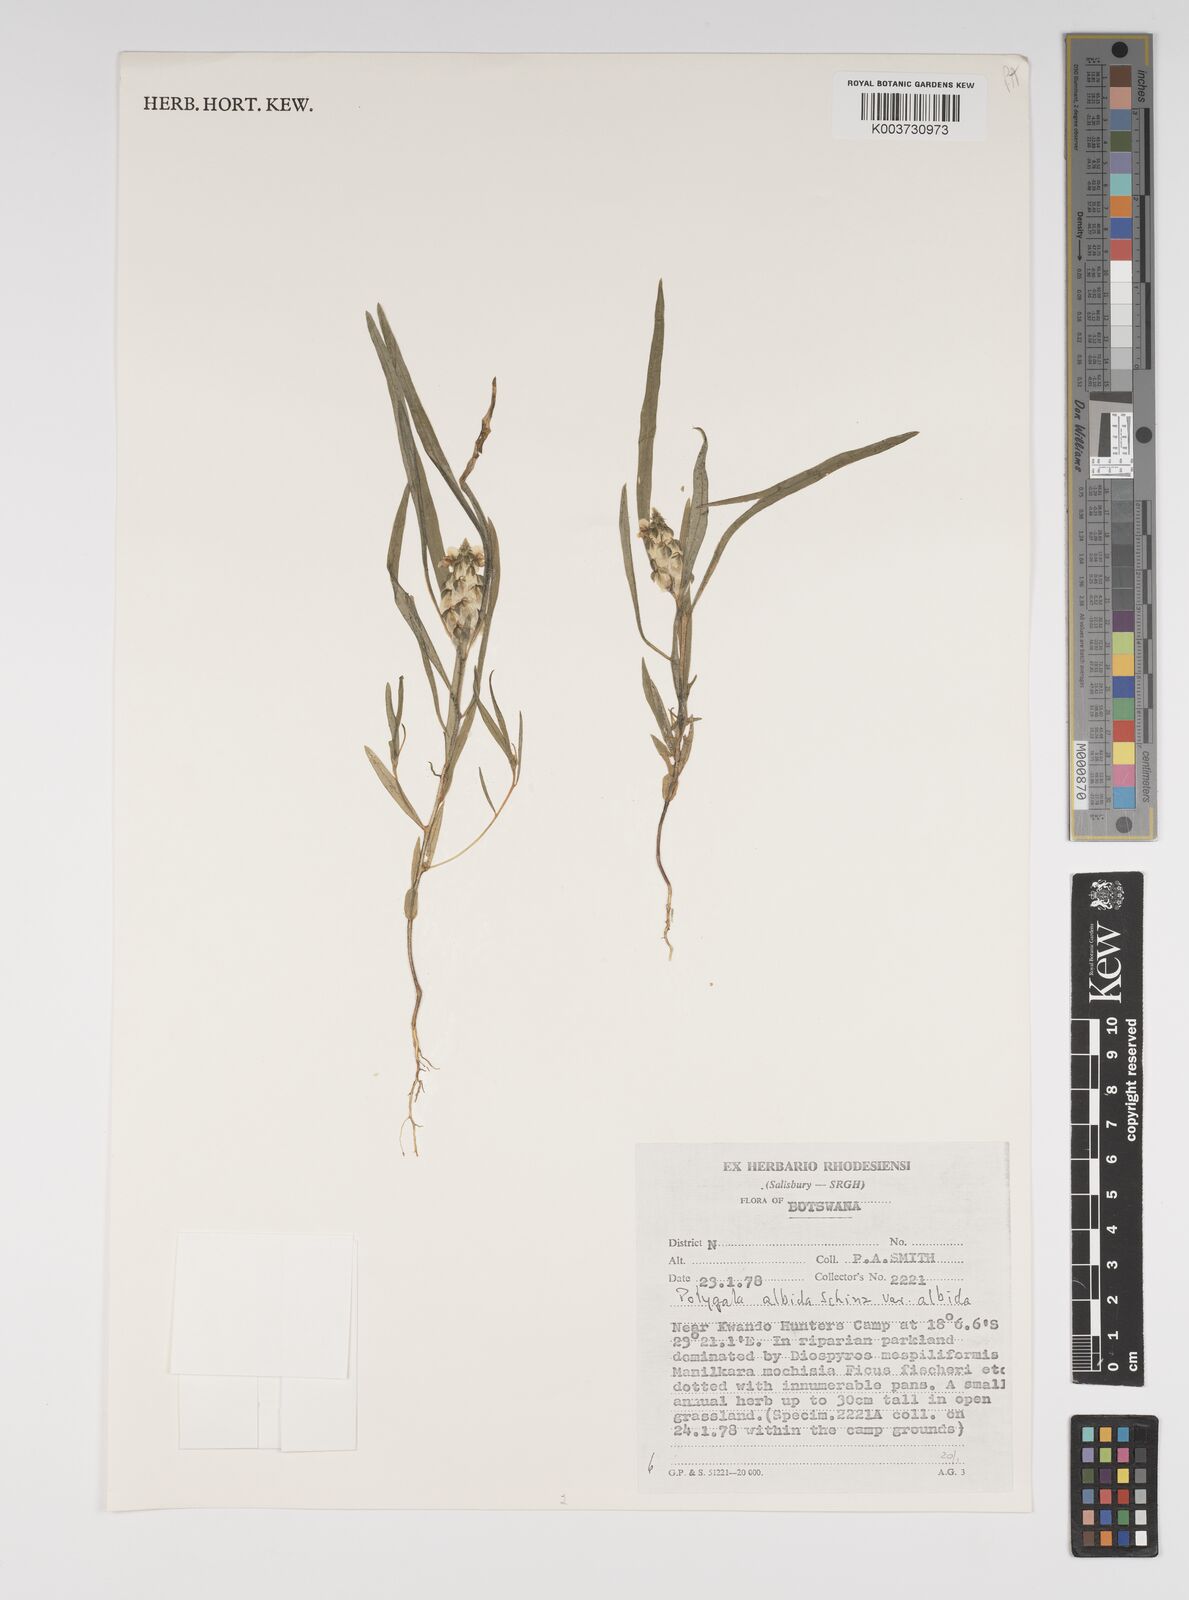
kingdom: Plantae
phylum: Tracheophyta
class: Magnoliopsida
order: Fabales
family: Polygalaceae
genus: Polygala
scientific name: Polygala albida
